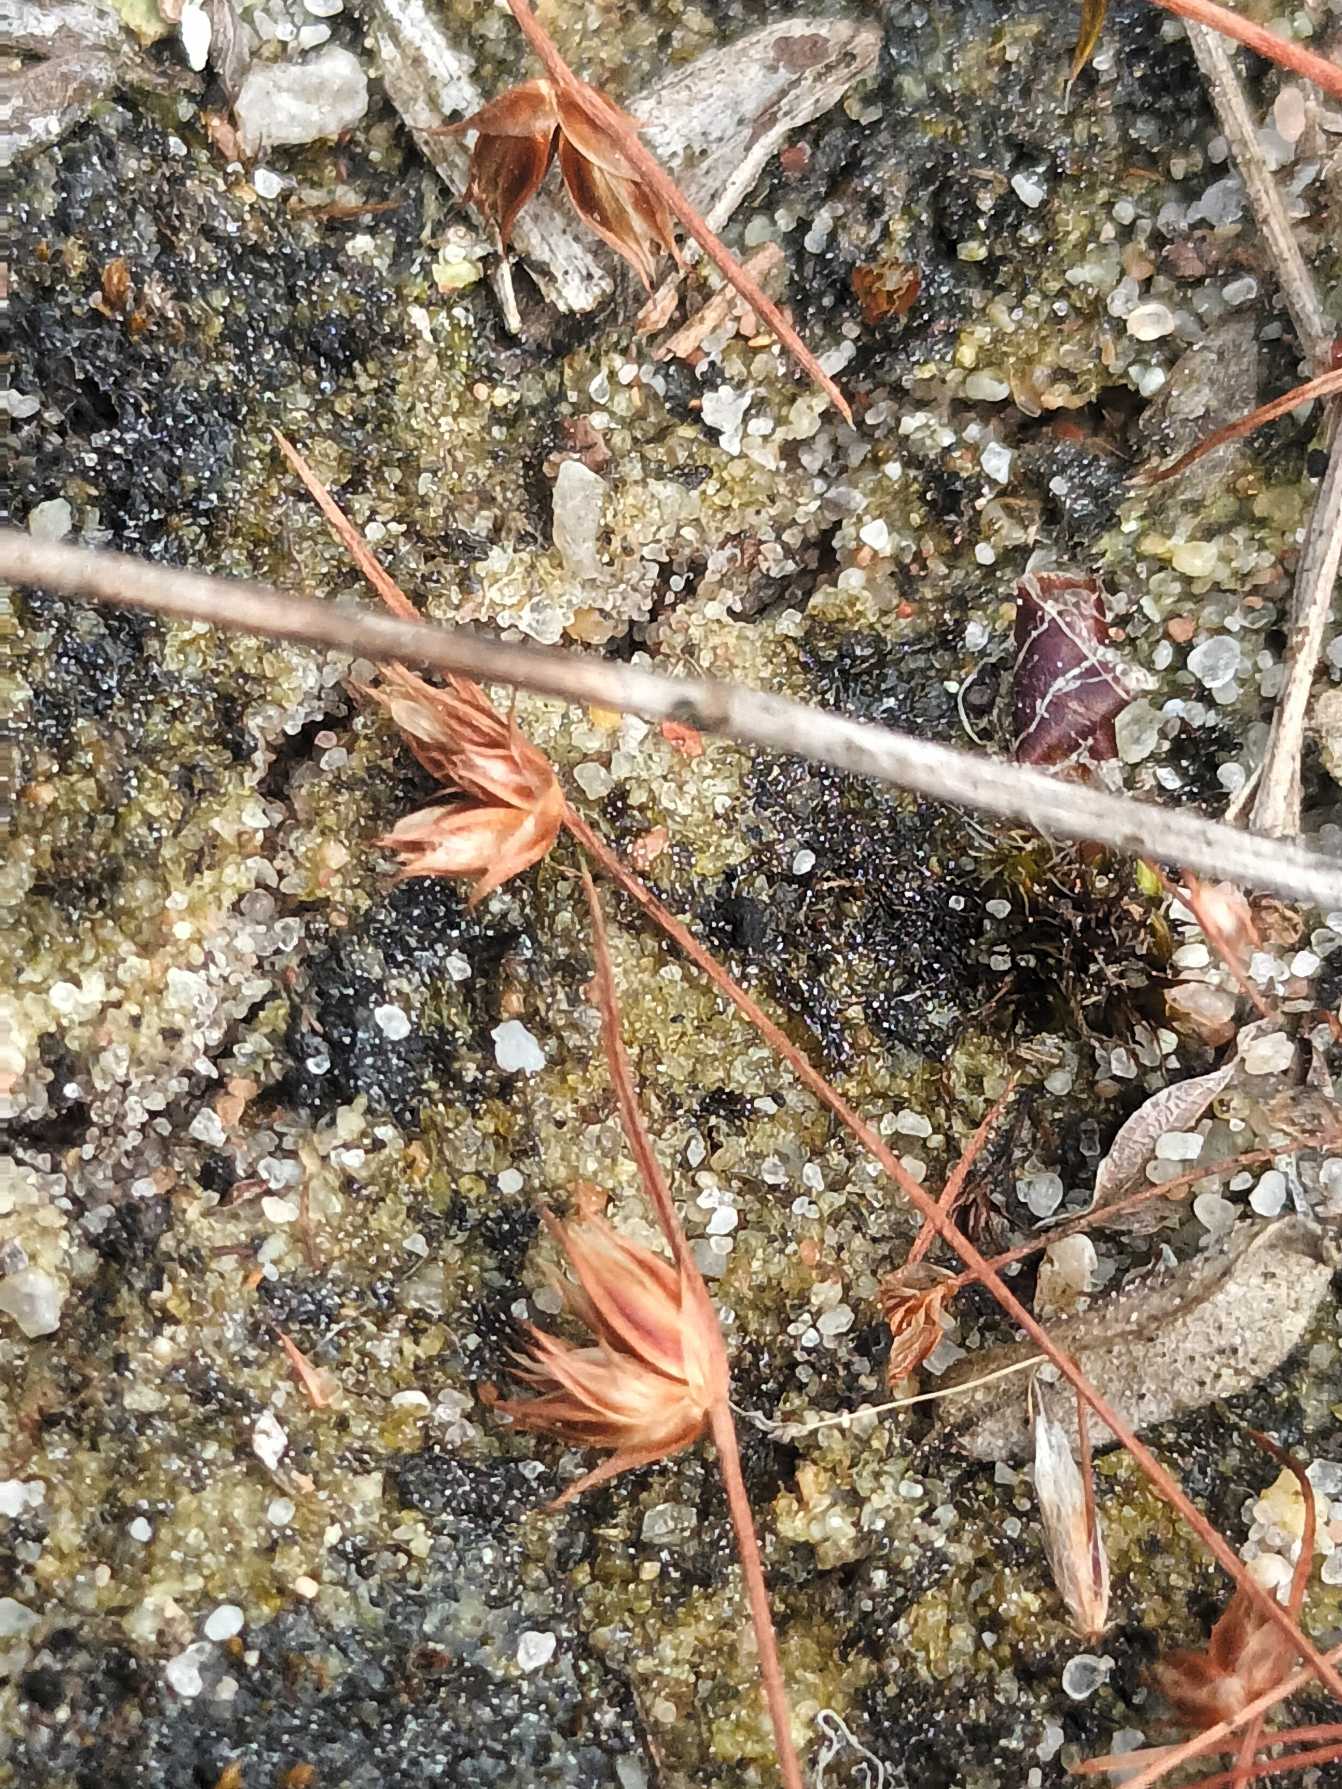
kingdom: Plantae
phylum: Tracheophyta
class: Liliopsida
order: Poales
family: Juncaceae
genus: Juncus
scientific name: Juncus capitatus
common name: Fin siv
